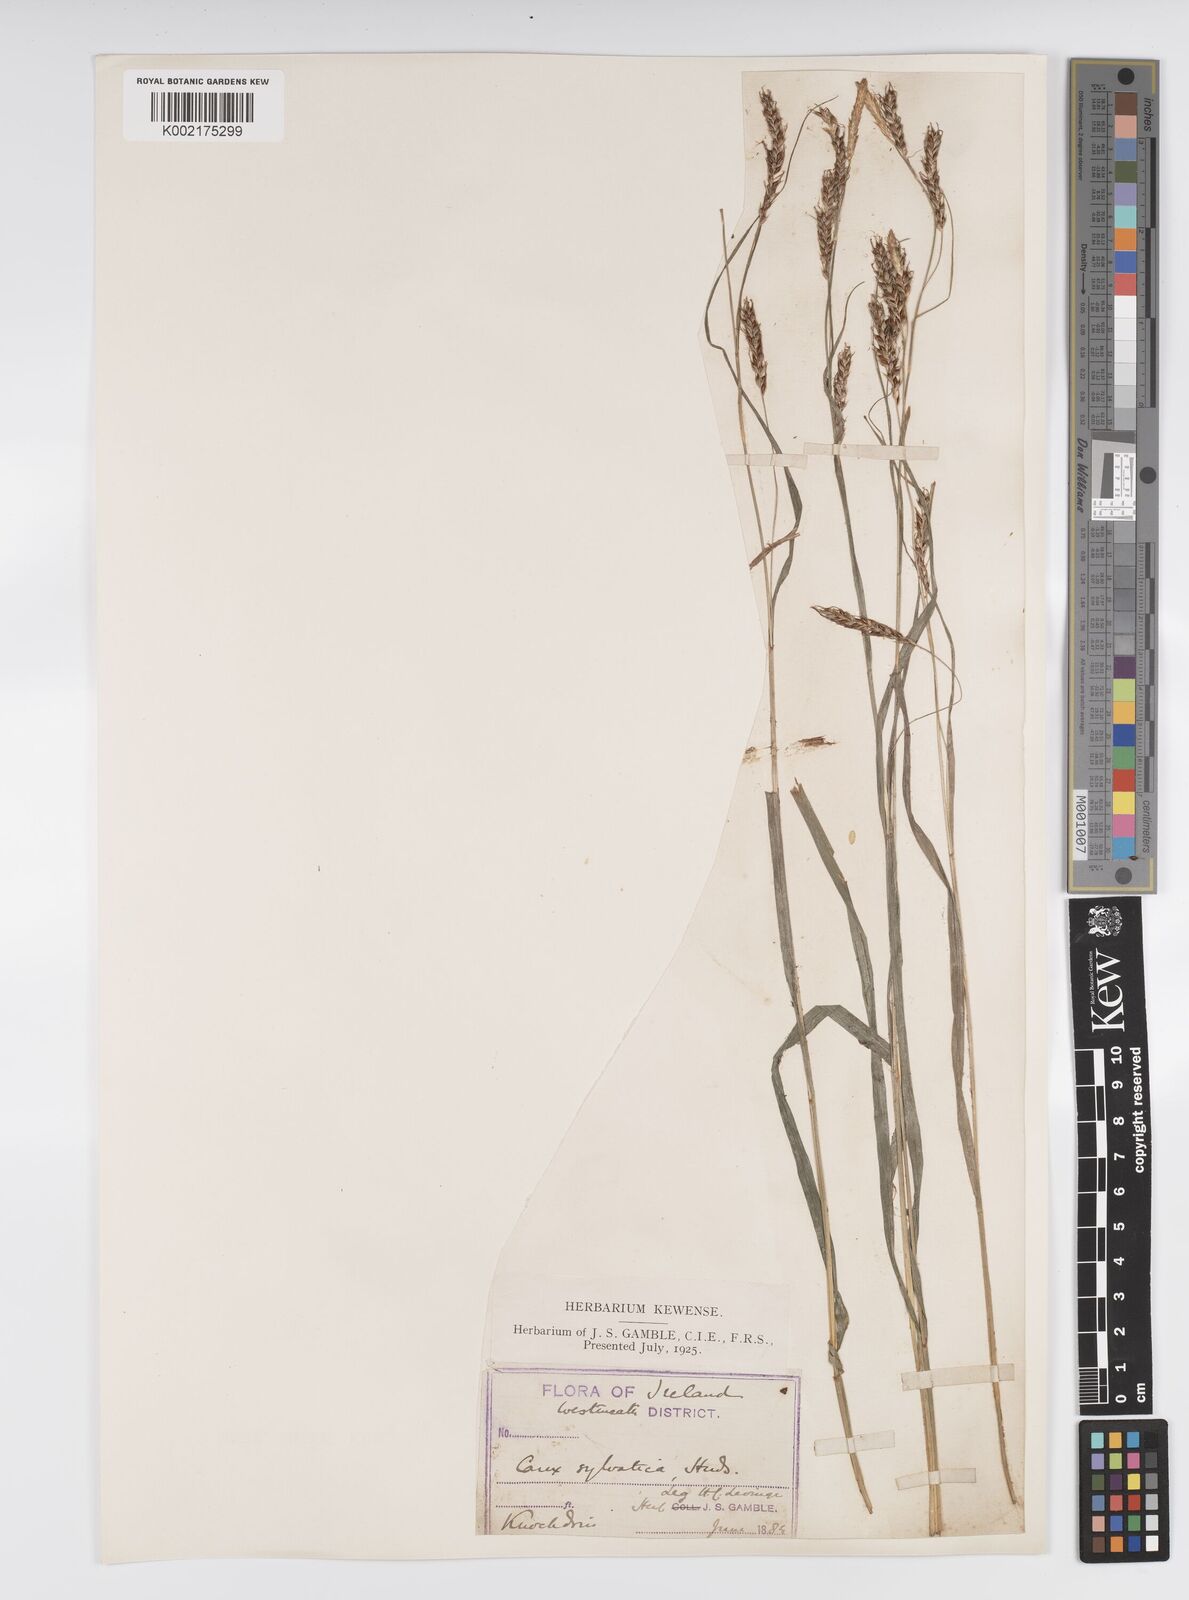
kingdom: Plantae
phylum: Tracheophyta
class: Liliopsida
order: Poales
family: Cyperaceae
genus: Carex
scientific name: Carex sylvatica
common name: Wood-sedge
